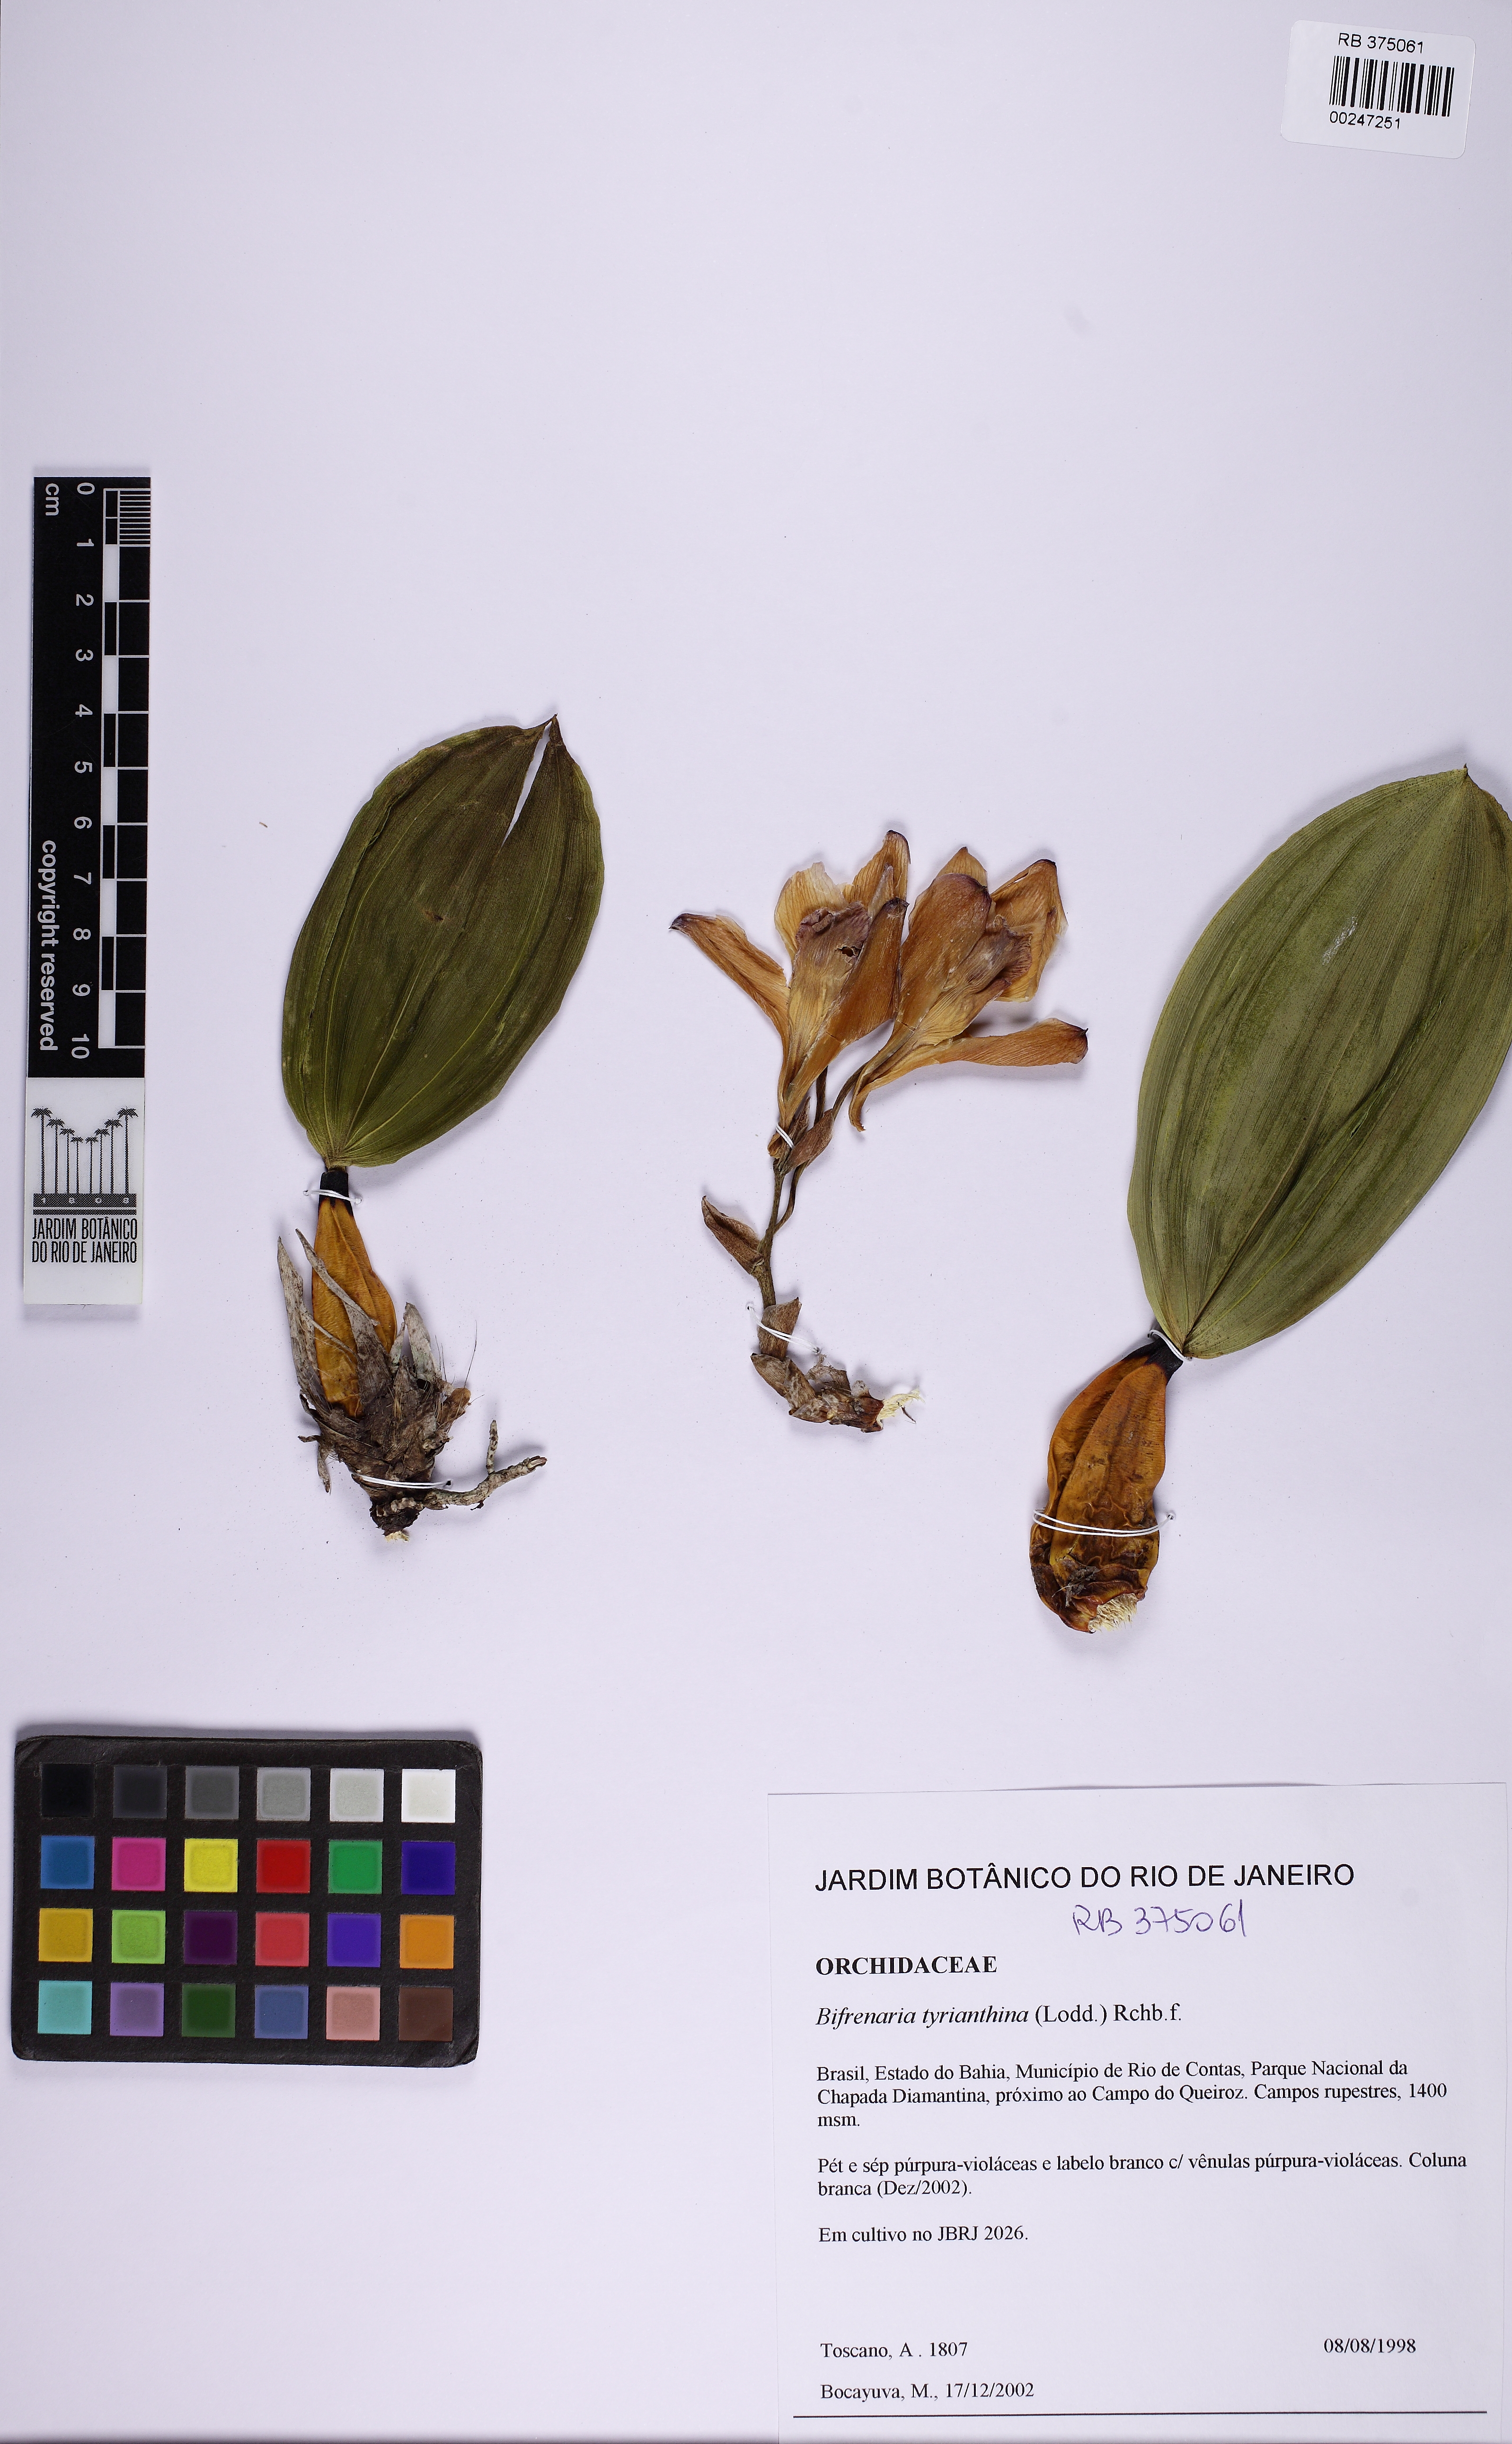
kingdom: Plantae
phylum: Tracheophyta
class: Liliopsida
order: Asparagales
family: Orchidaceae
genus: Bifrenaria
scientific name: Bifrenaria tyrianthina
